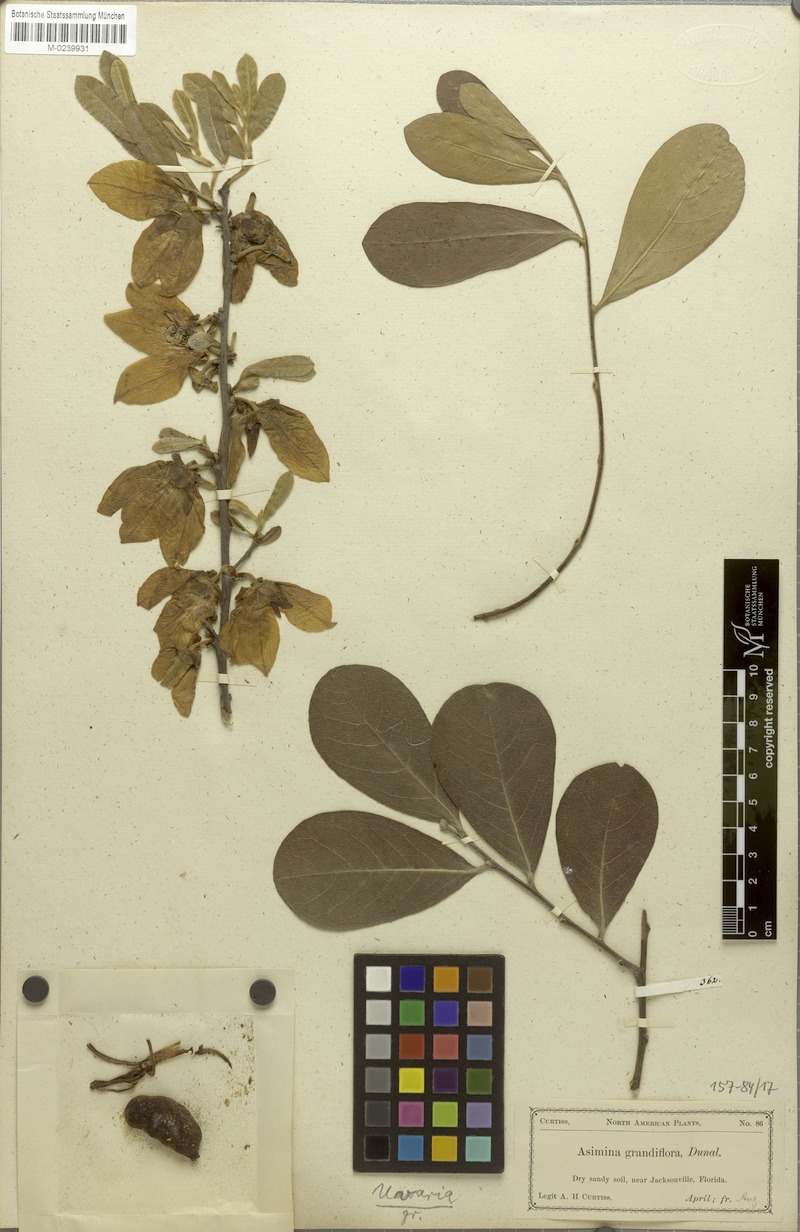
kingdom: Plantae
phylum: Tracheophyta
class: Magnoliopsida
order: Magnoliales
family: Annonaceae
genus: Asimina
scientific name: Asimina speciosa
